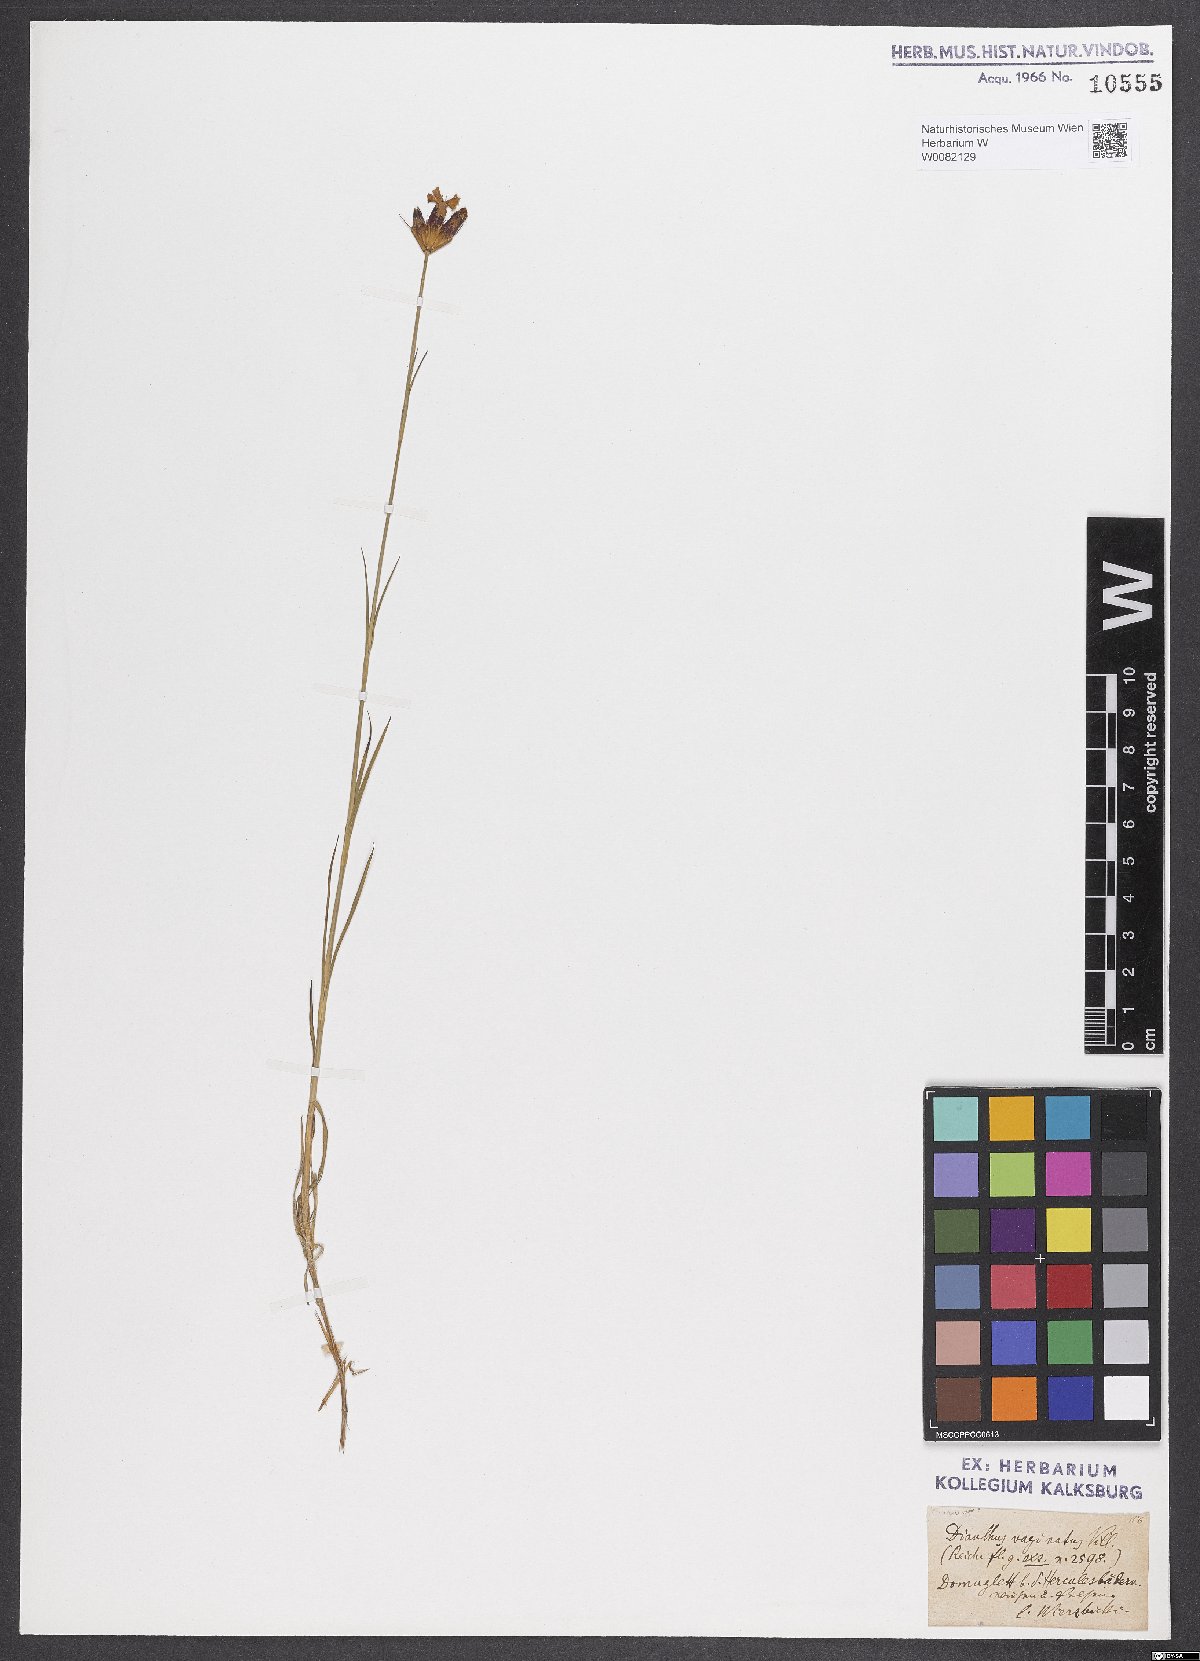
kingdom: Plantae
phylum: Tracheophyta
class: Magnoliopsida
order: Caryophyllales
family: Caryophyllaceae
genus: Dianthus
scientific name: Dianthus carthusianorum
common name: Carthusian pink
